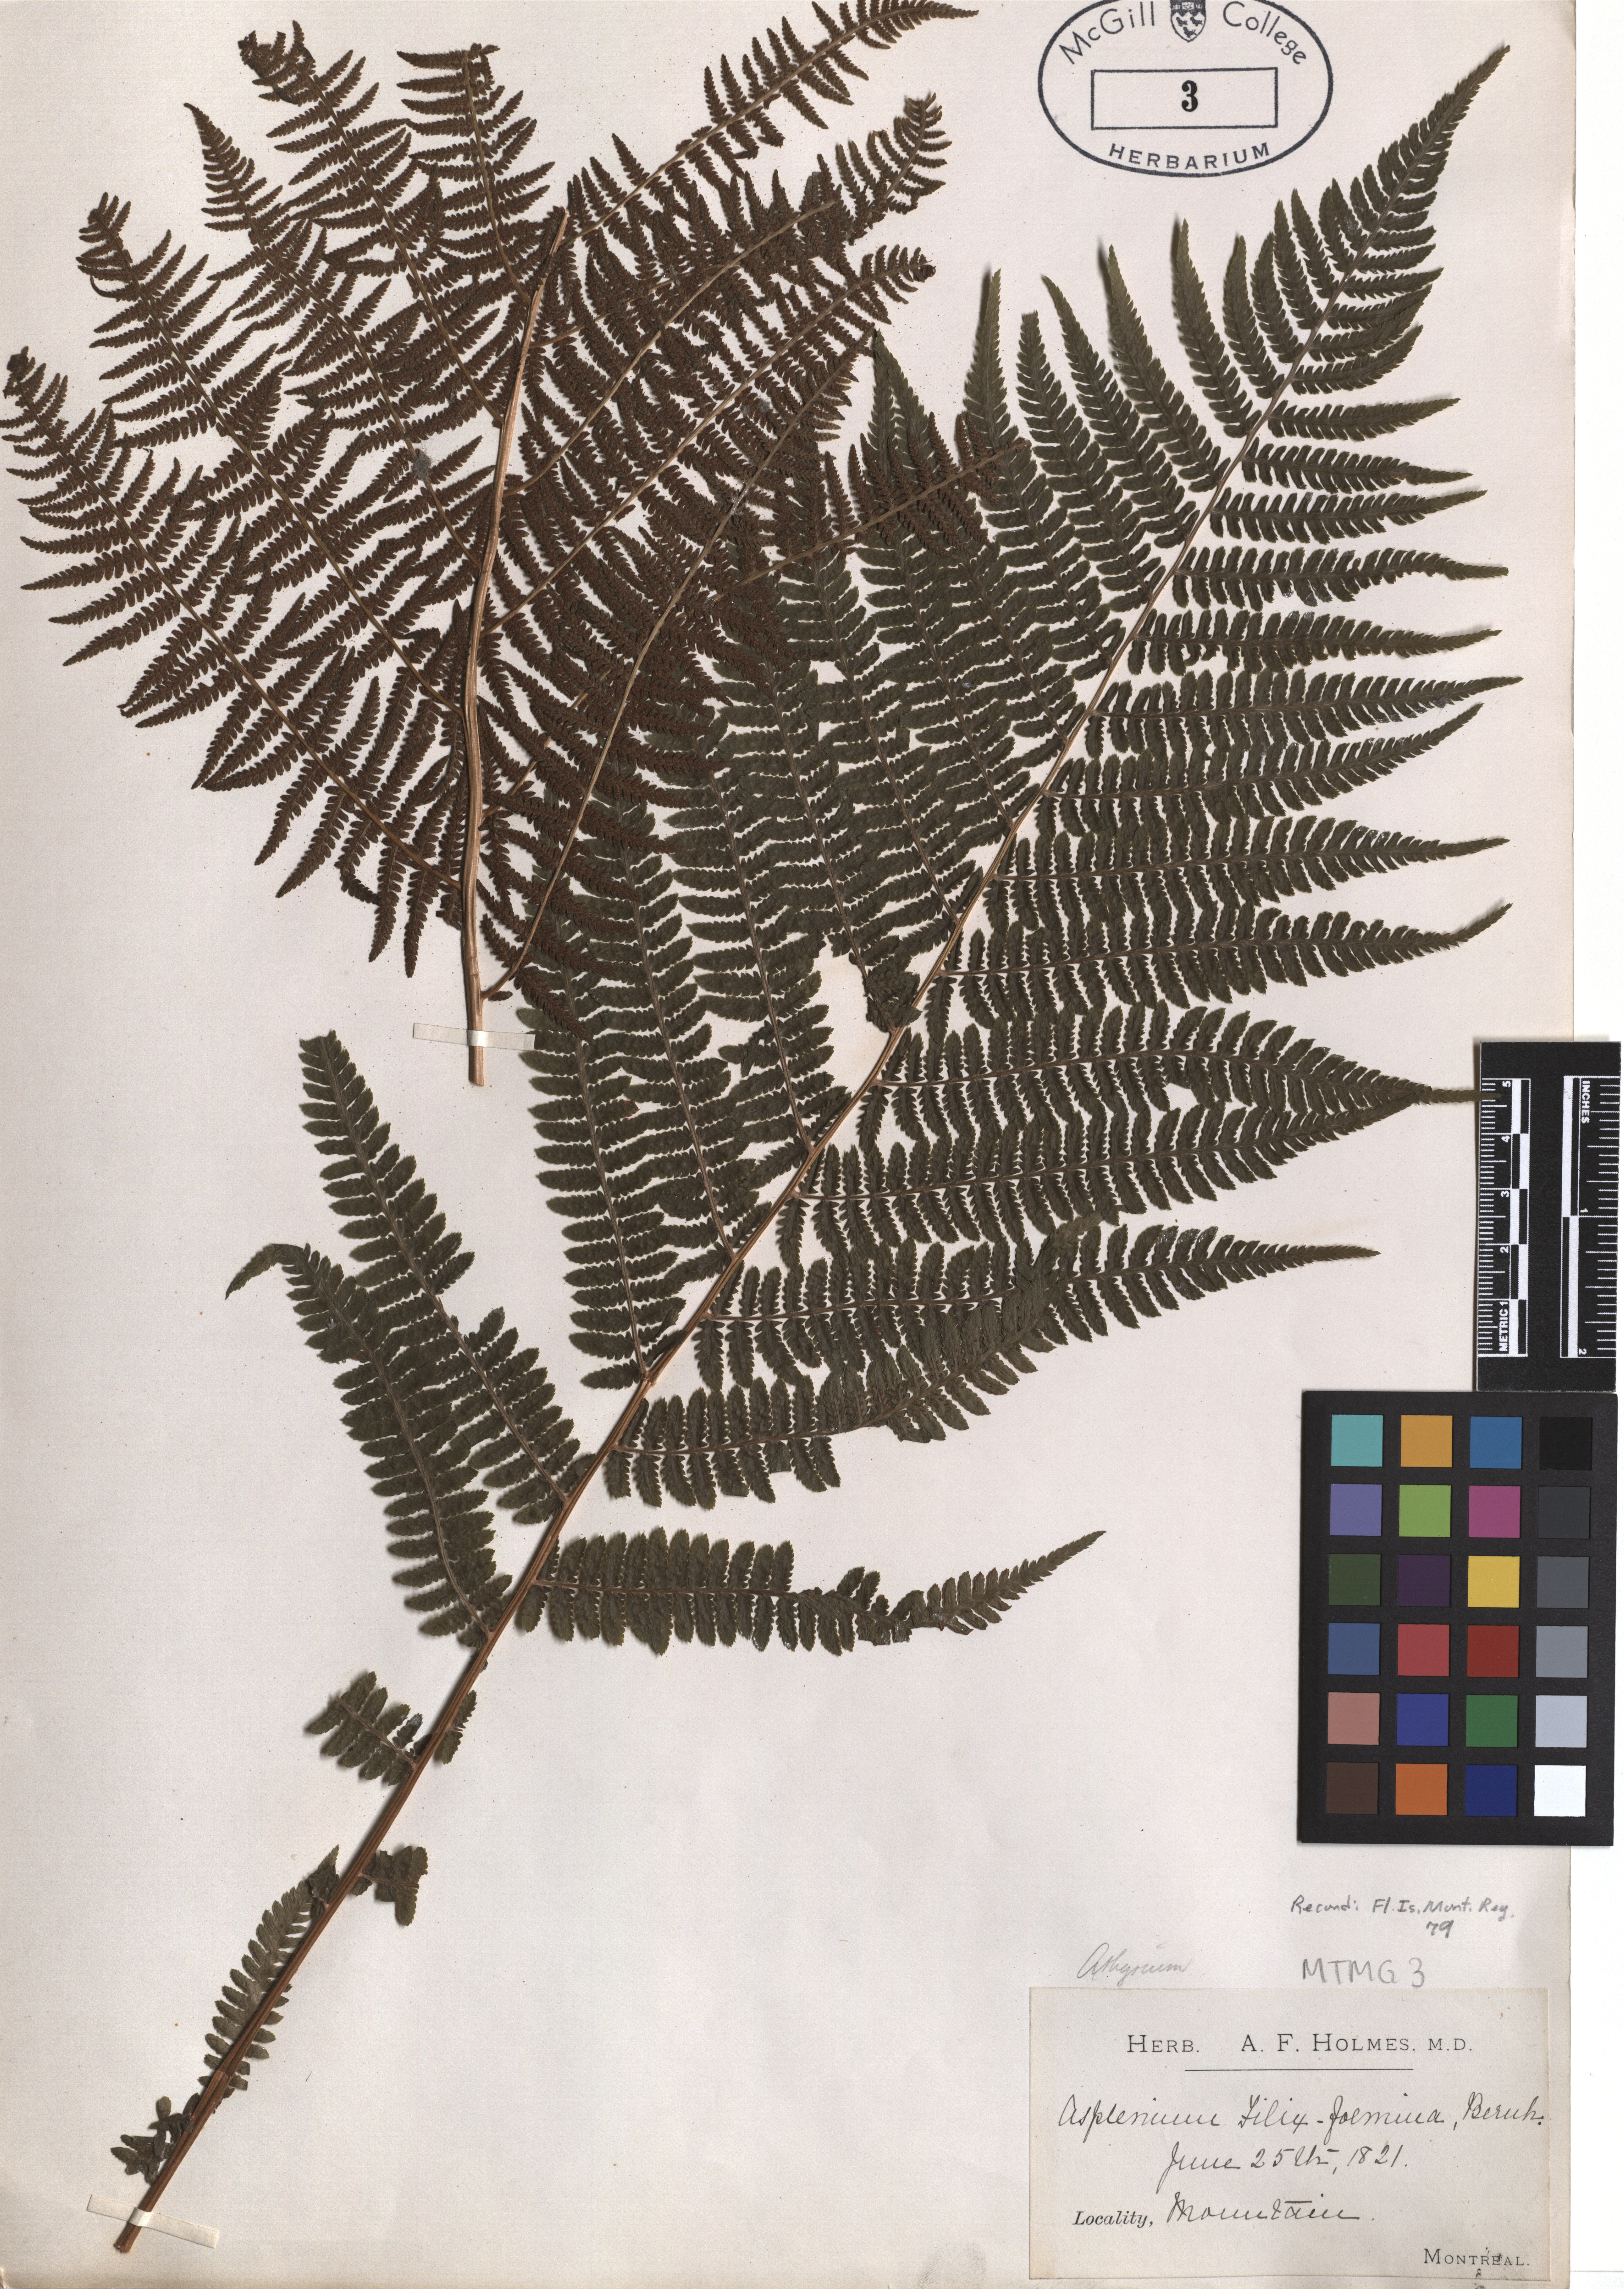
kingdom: Plantae
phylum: Tracheophyta
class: Polypodiopsida
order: Polypodiales
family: Athyriaceae
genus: Athyrium
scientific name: Athyrium filix-femina
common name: Lady fern
